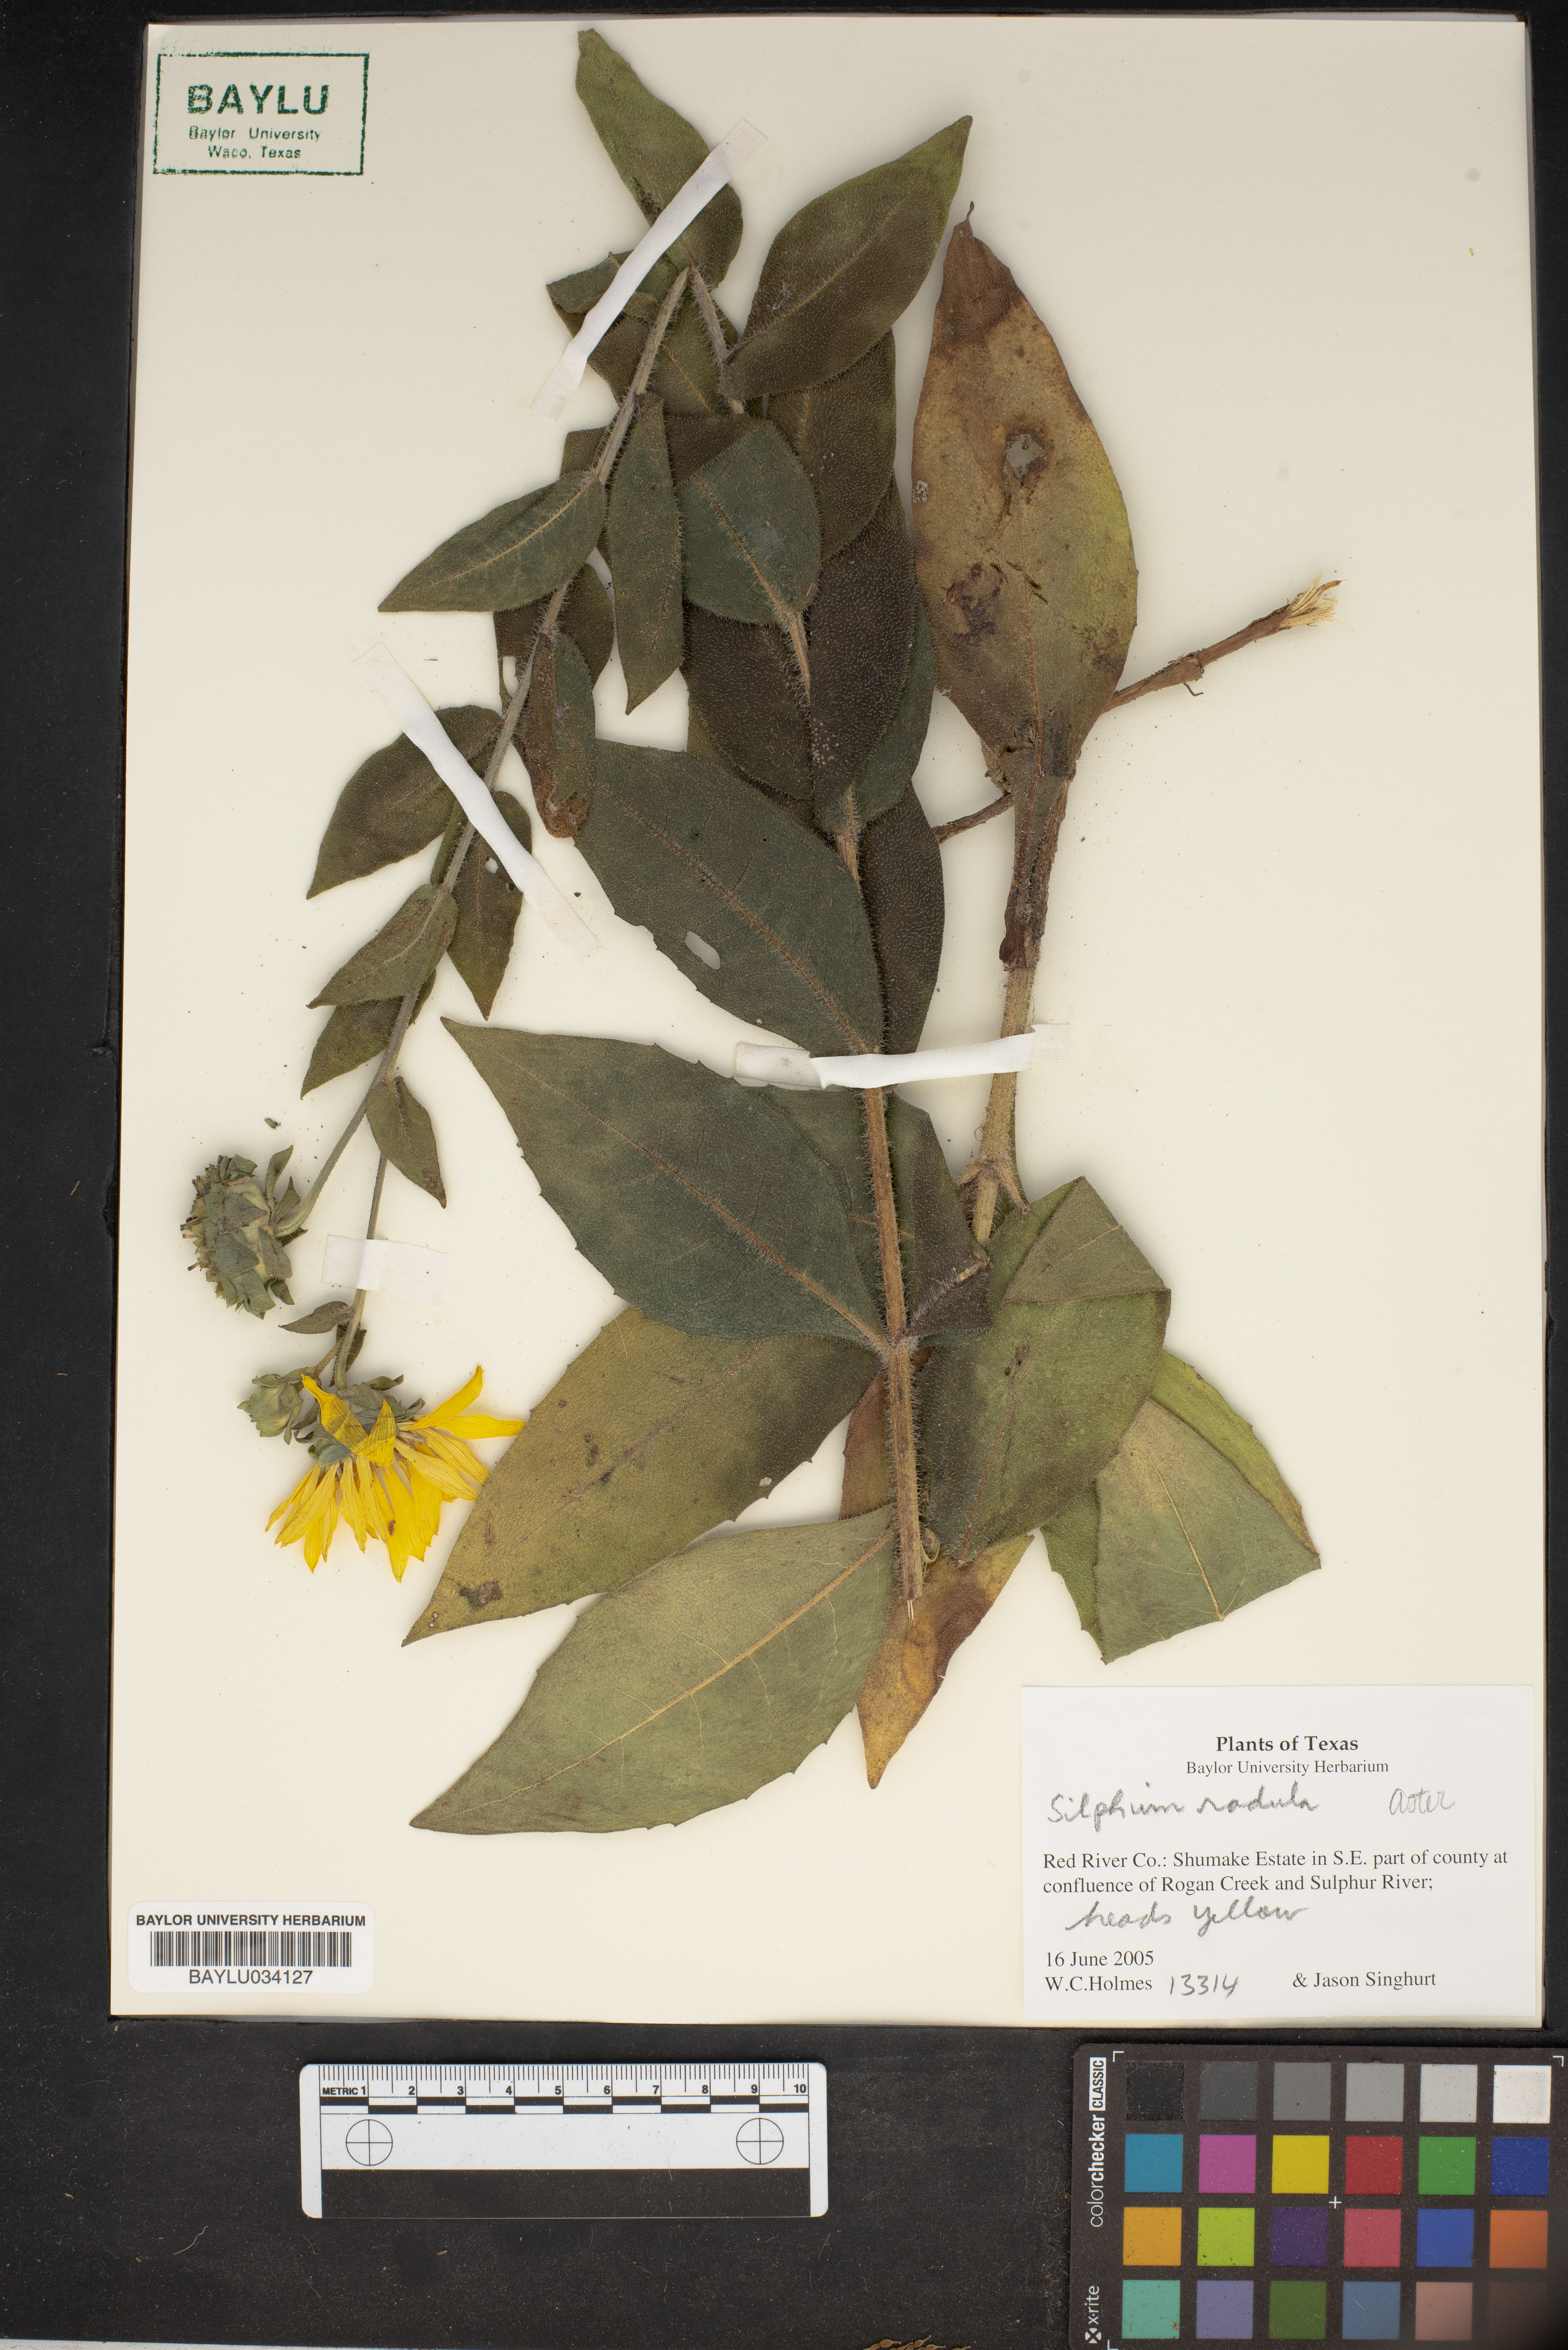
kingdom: Plantae
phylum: Tracheophyta
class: Magnoliopsida
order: Asterales
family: Asteraceae
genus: Silphium
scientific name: Silphium radula
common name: Roughleaf rosinweed
